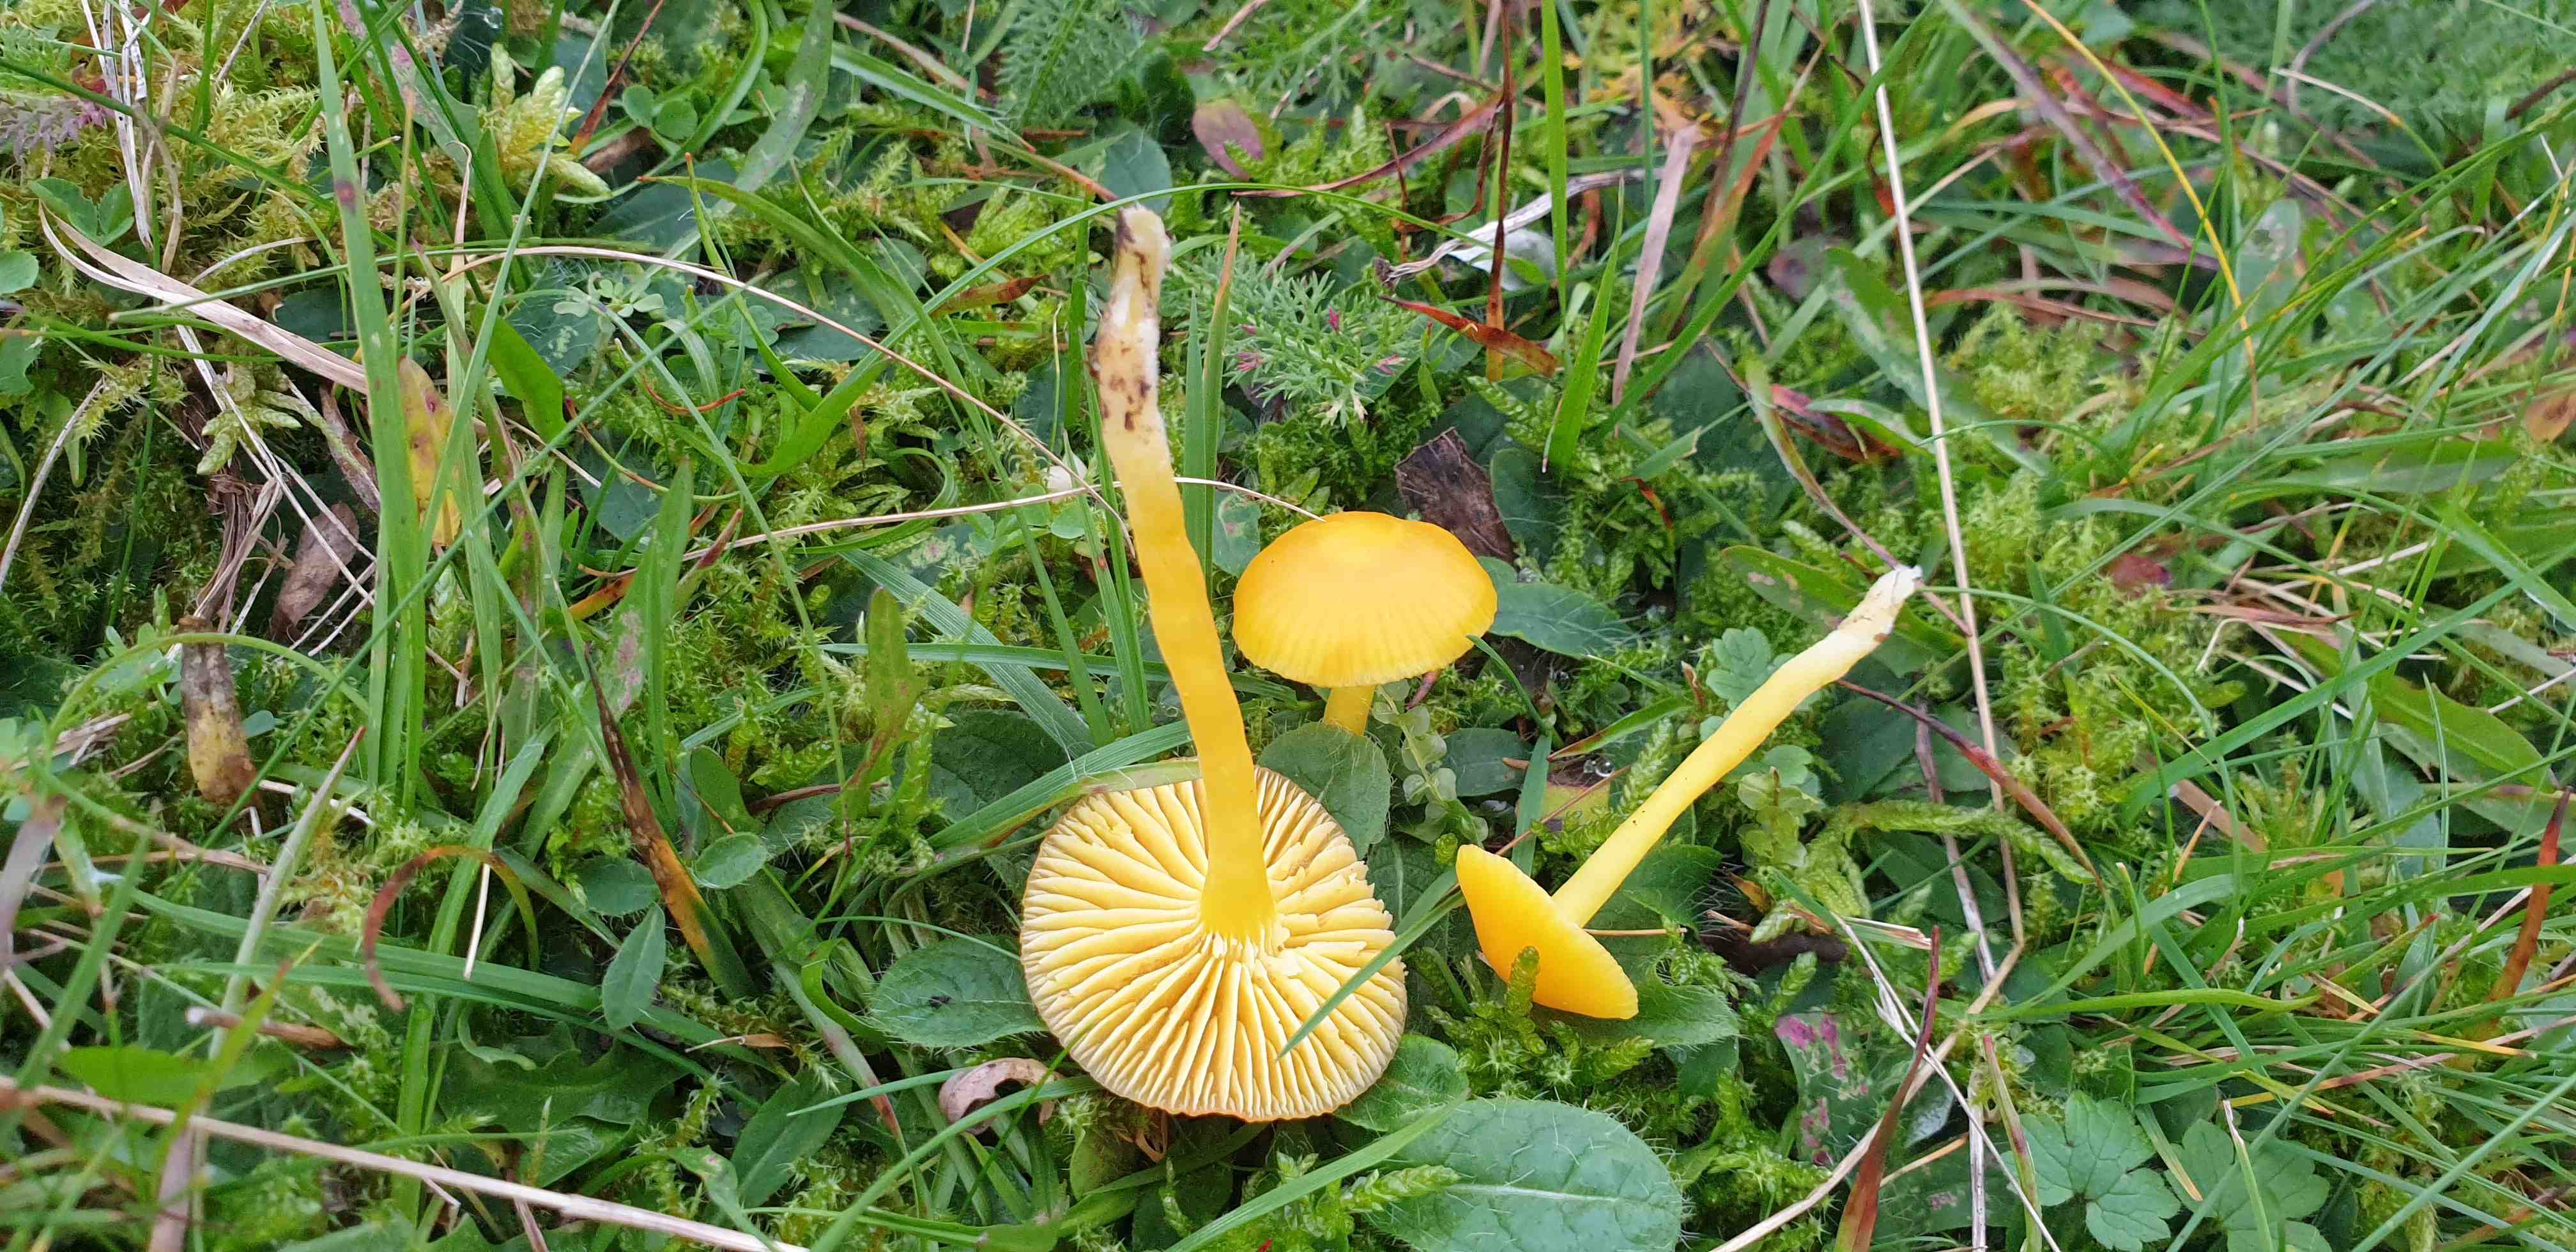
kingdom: Fungi
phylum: Basidiomycota
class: Agaricomycetes
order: Agaricales
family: Hygrophoraceae
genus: Hygrocybe
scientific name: Hygrocybe ceracea
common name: voksgul vokshat
